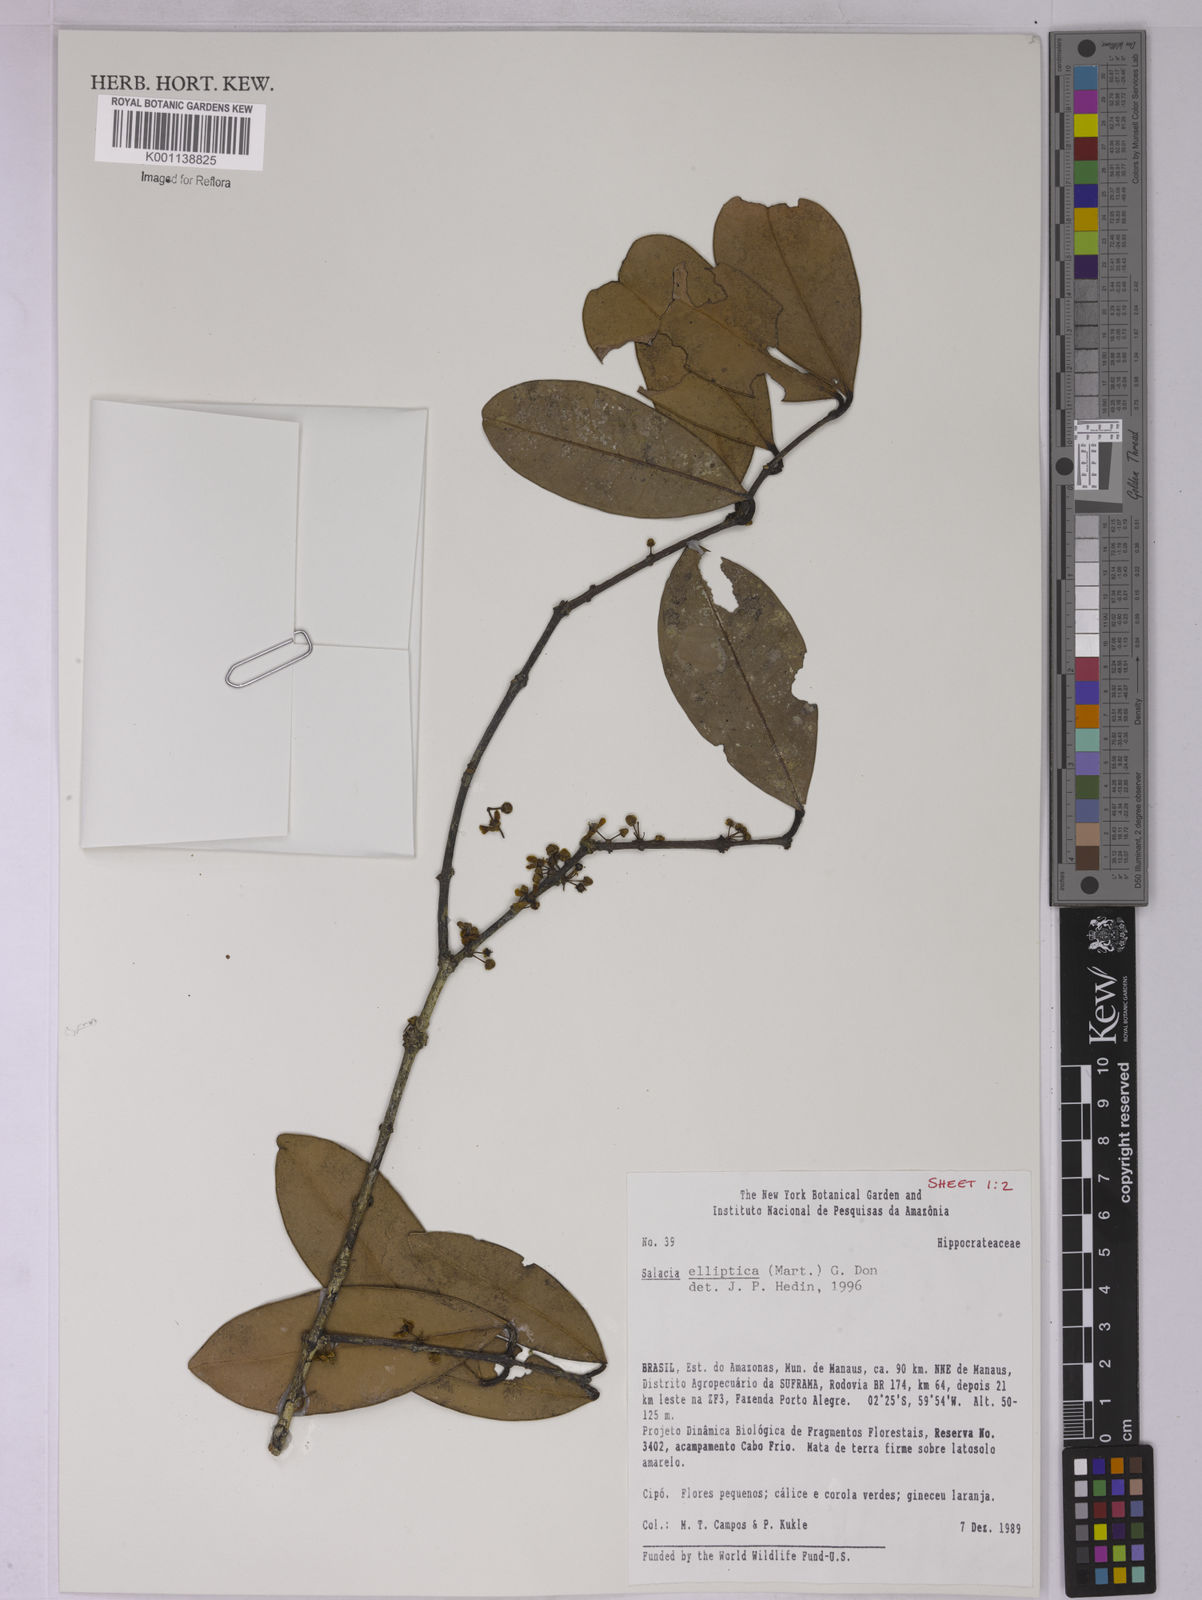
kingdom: Plantae
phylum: Tracheophyta
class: Magnoliopsida
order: Celastrales
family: Celastraceae
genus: Salacia
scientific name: Salacia elliptica
